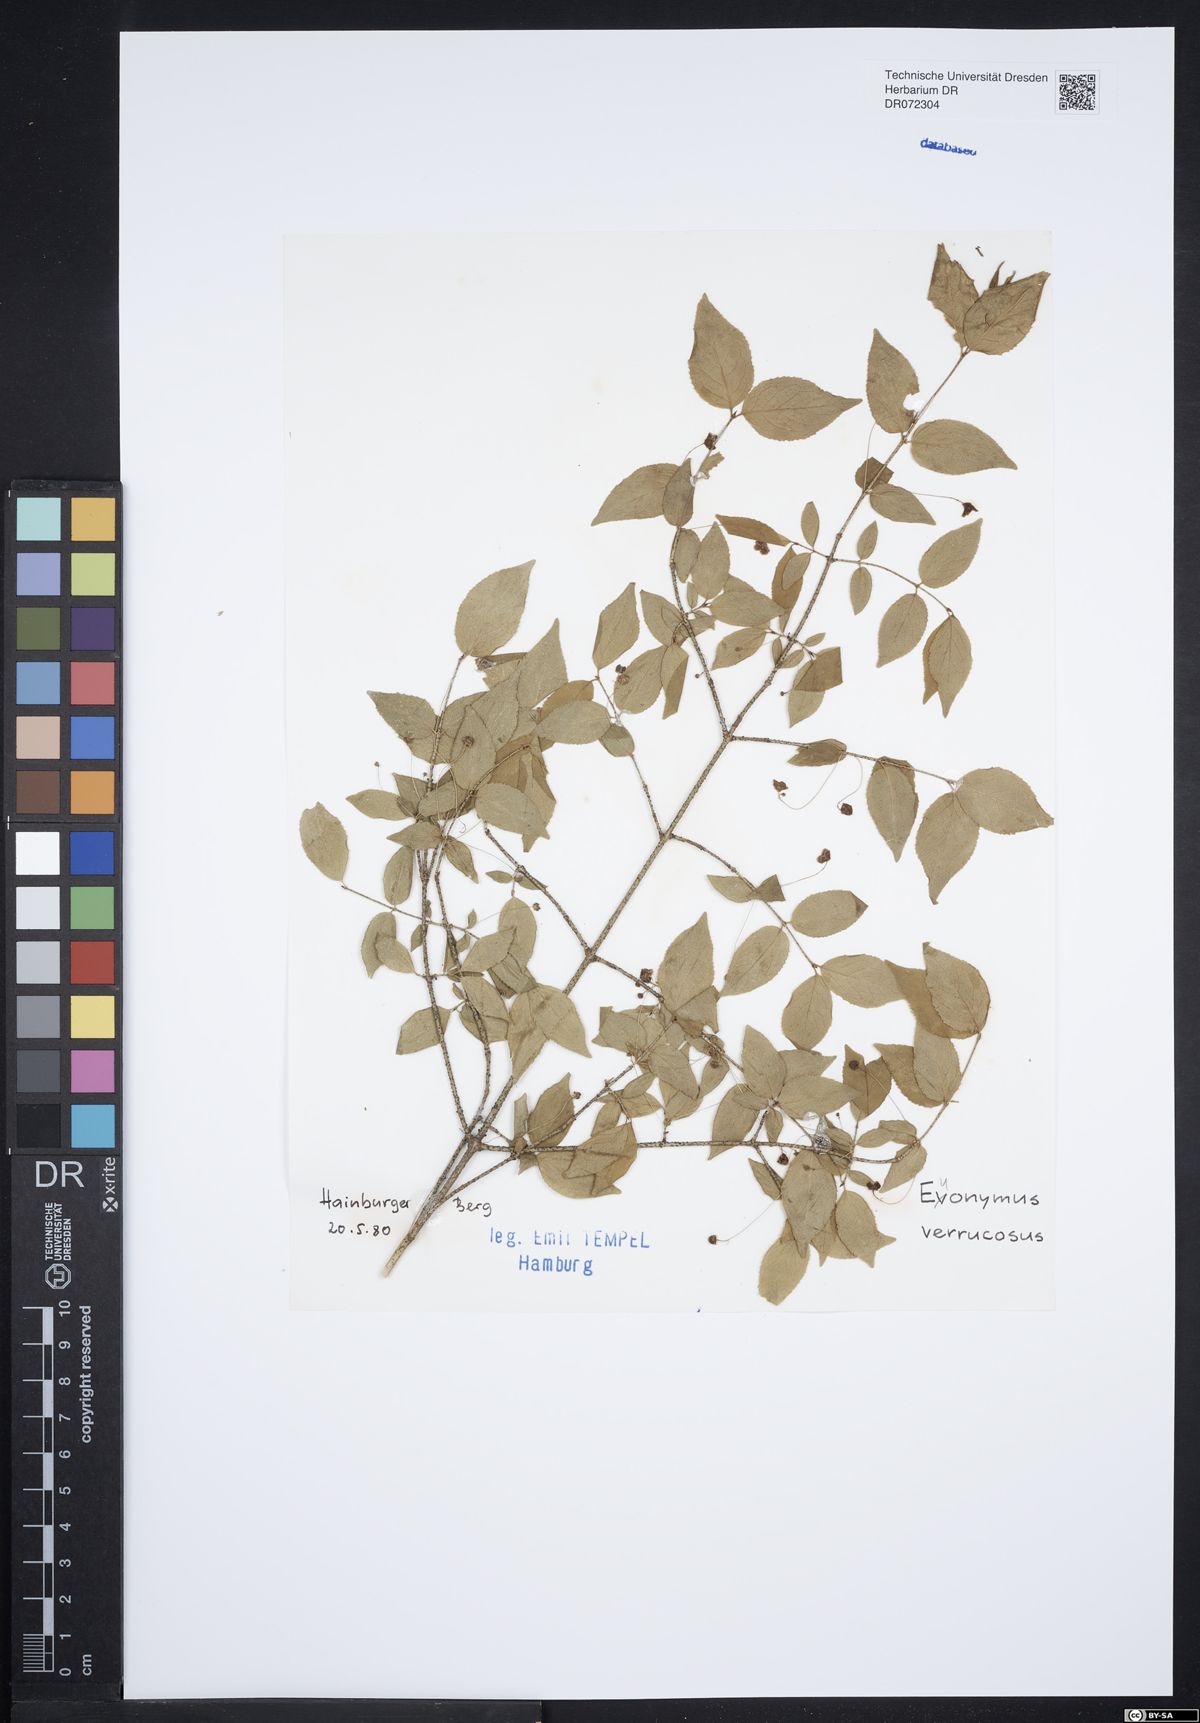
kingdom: Plantae
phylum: Tracheophyta
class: Magnoliopsida
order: Celastrales
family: Celastraceae
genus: Euonymus
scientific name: Euonymus verrucosus
